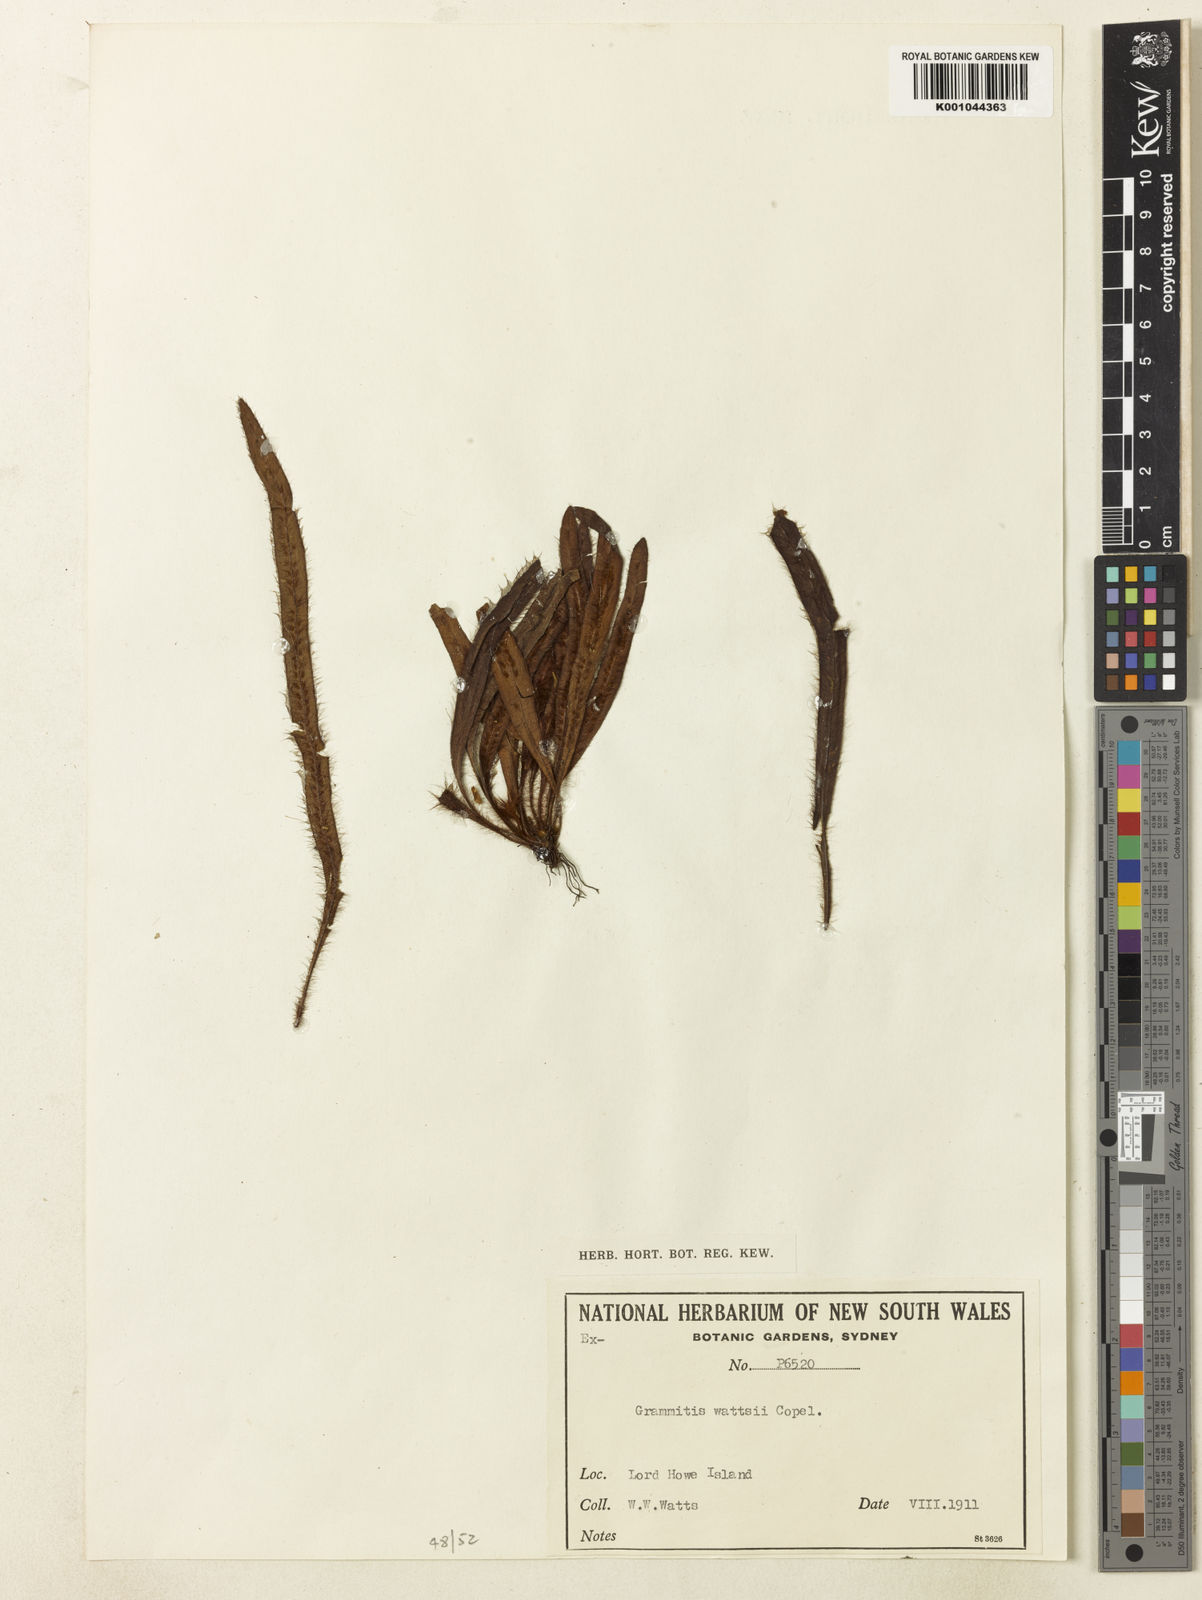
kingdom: Plantae
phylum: Tracheophyta
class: Polypodiopsida
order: Polypodiales
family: Polypodiaceae
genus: Grammitis
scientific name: Grammitis pulchella
